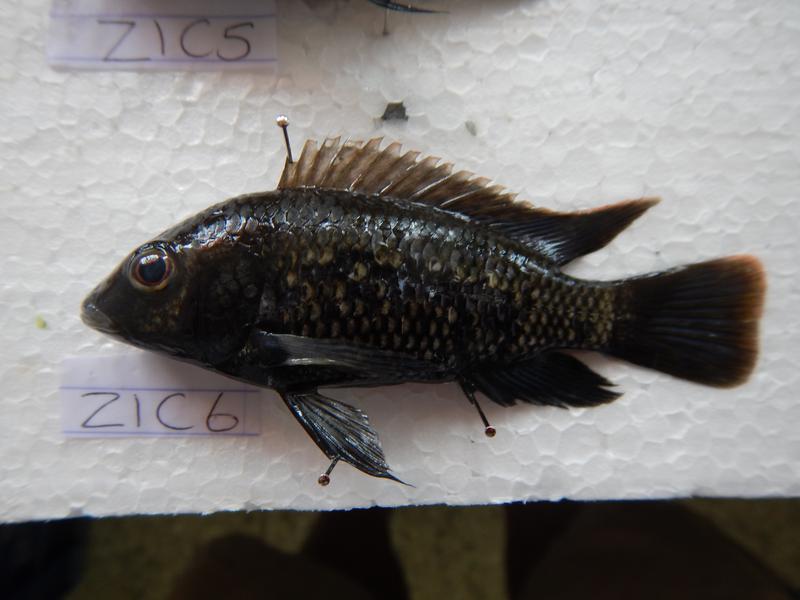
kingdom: Animalia
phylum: Chordata
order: Perciformes
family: Cichlidae
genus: Oreochromis
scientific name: Oreochromis urolepis
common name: Wami tilapia
